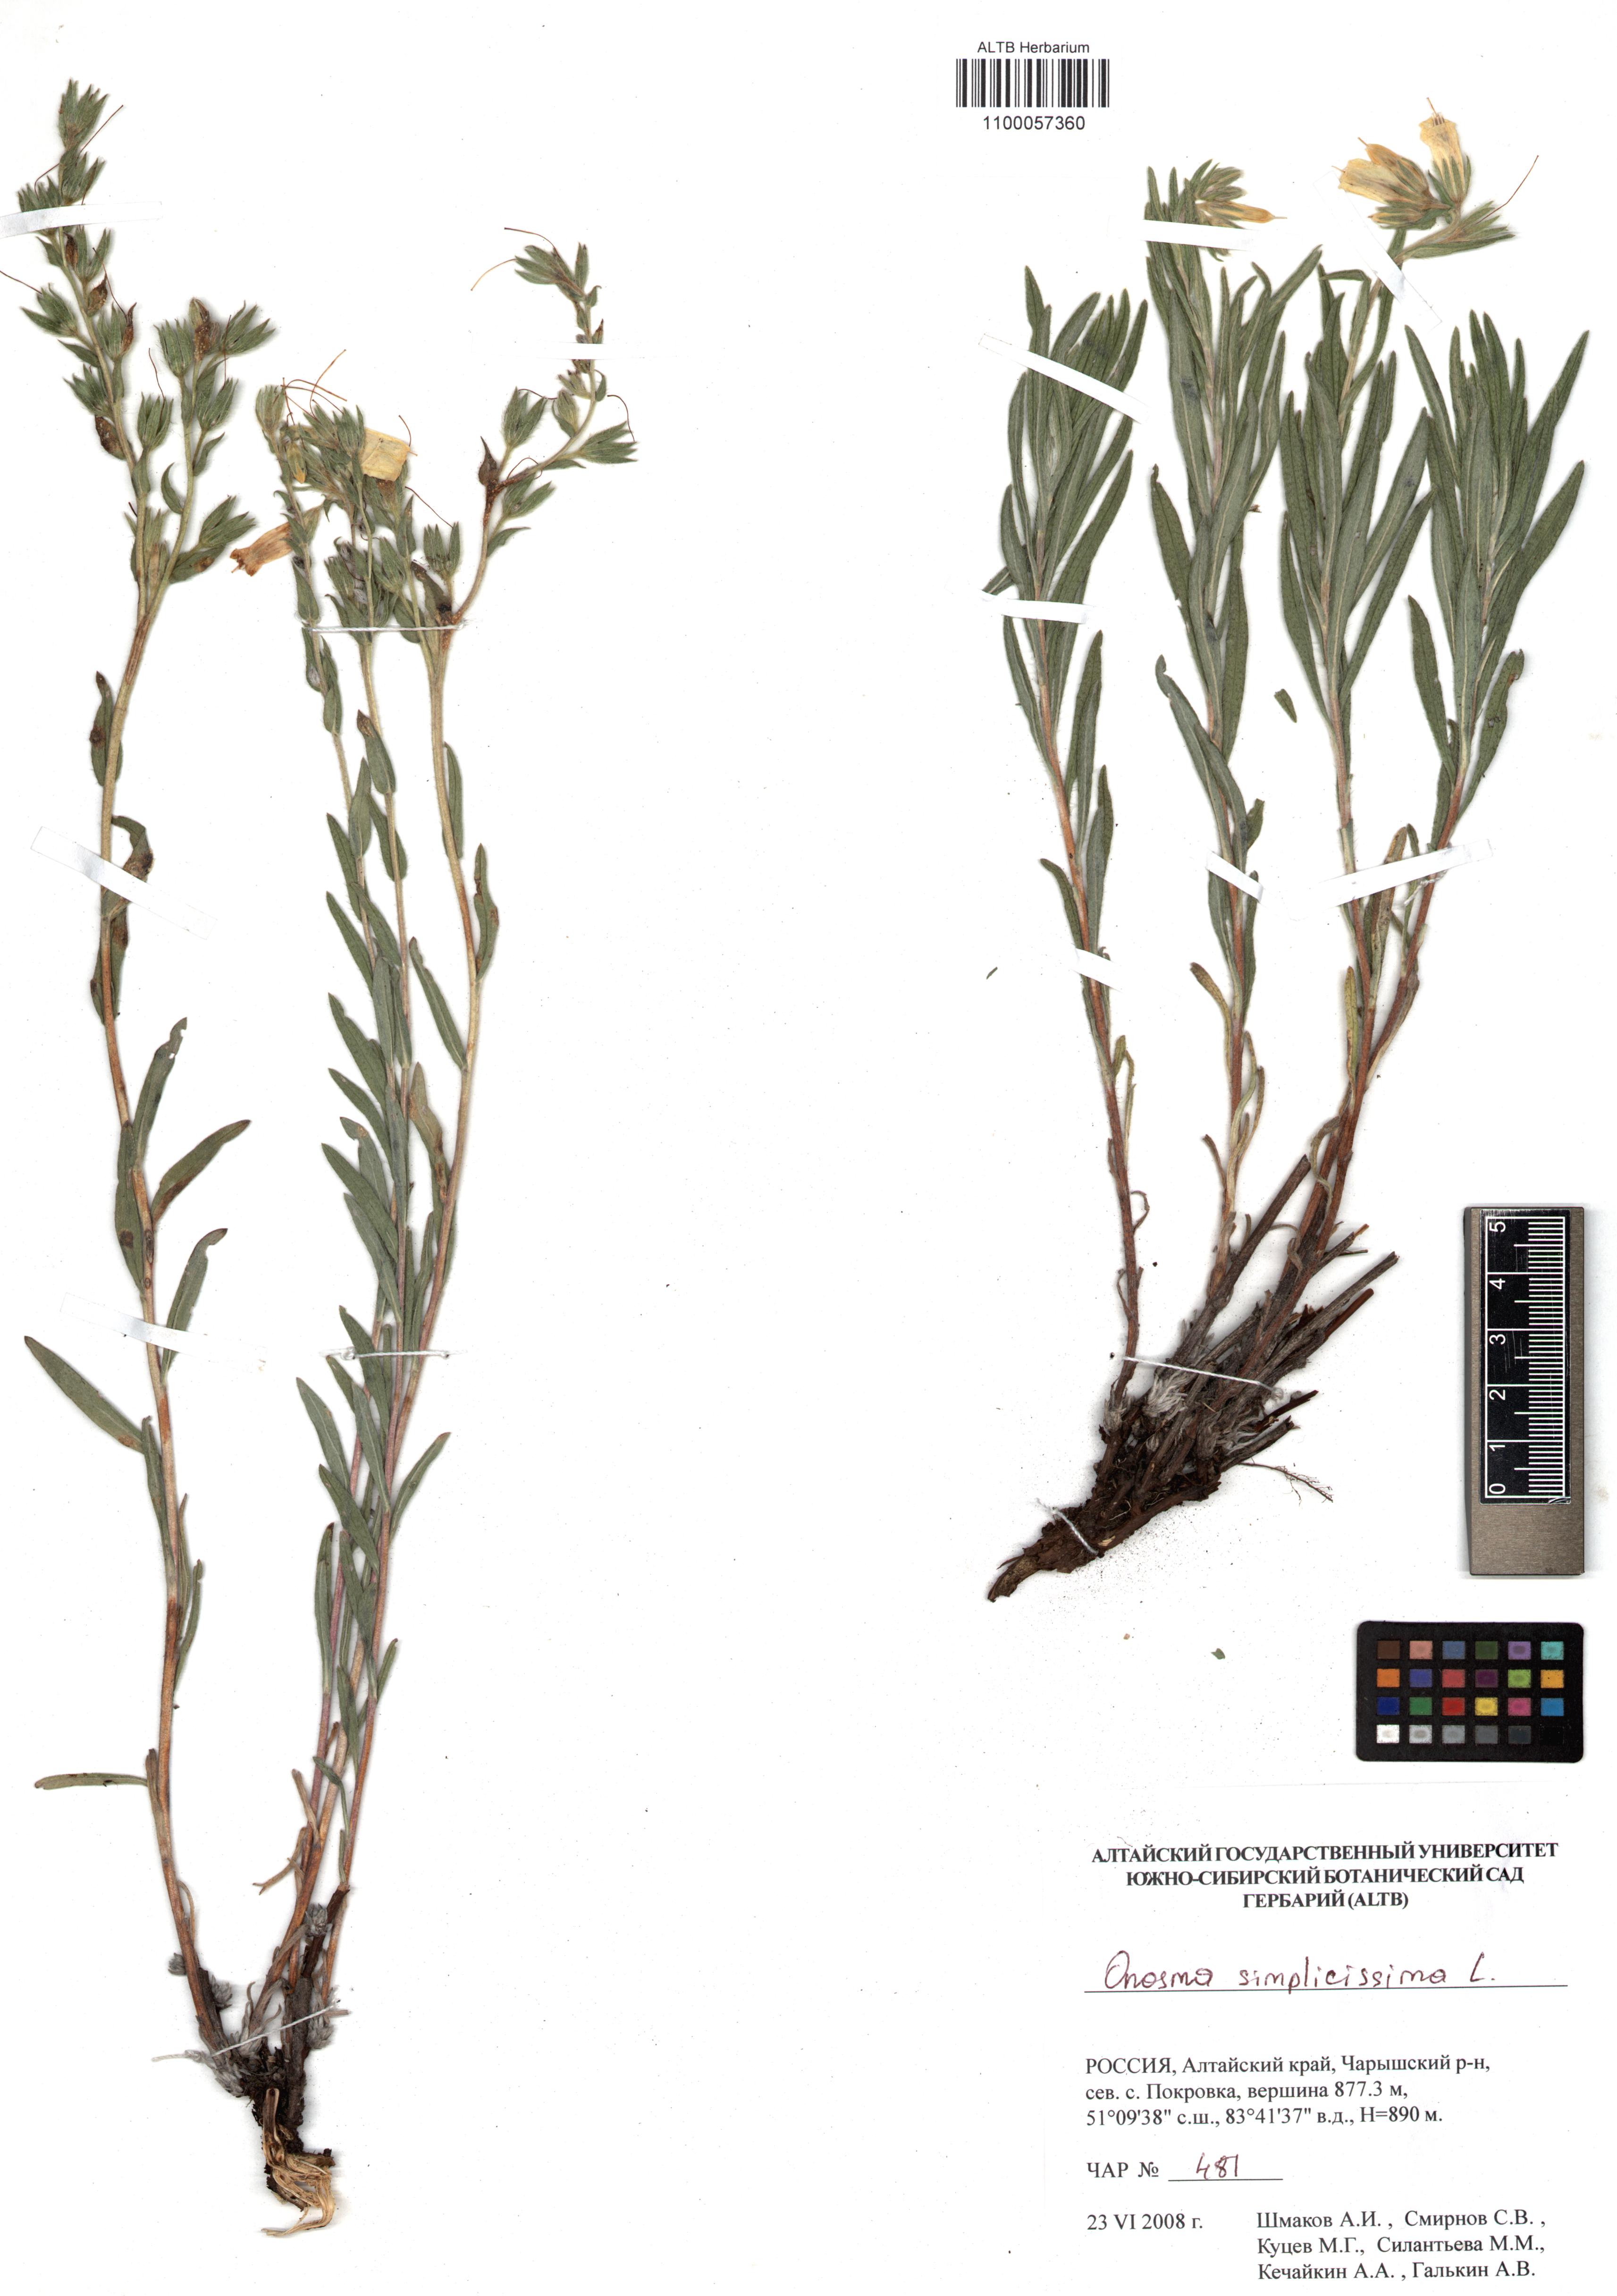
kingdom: Plantae
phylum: Tracheophyta
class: Magnoliopsida
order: Boraginales
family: Boraginaceae
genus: Onosma
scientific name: Onosma simplicissima
